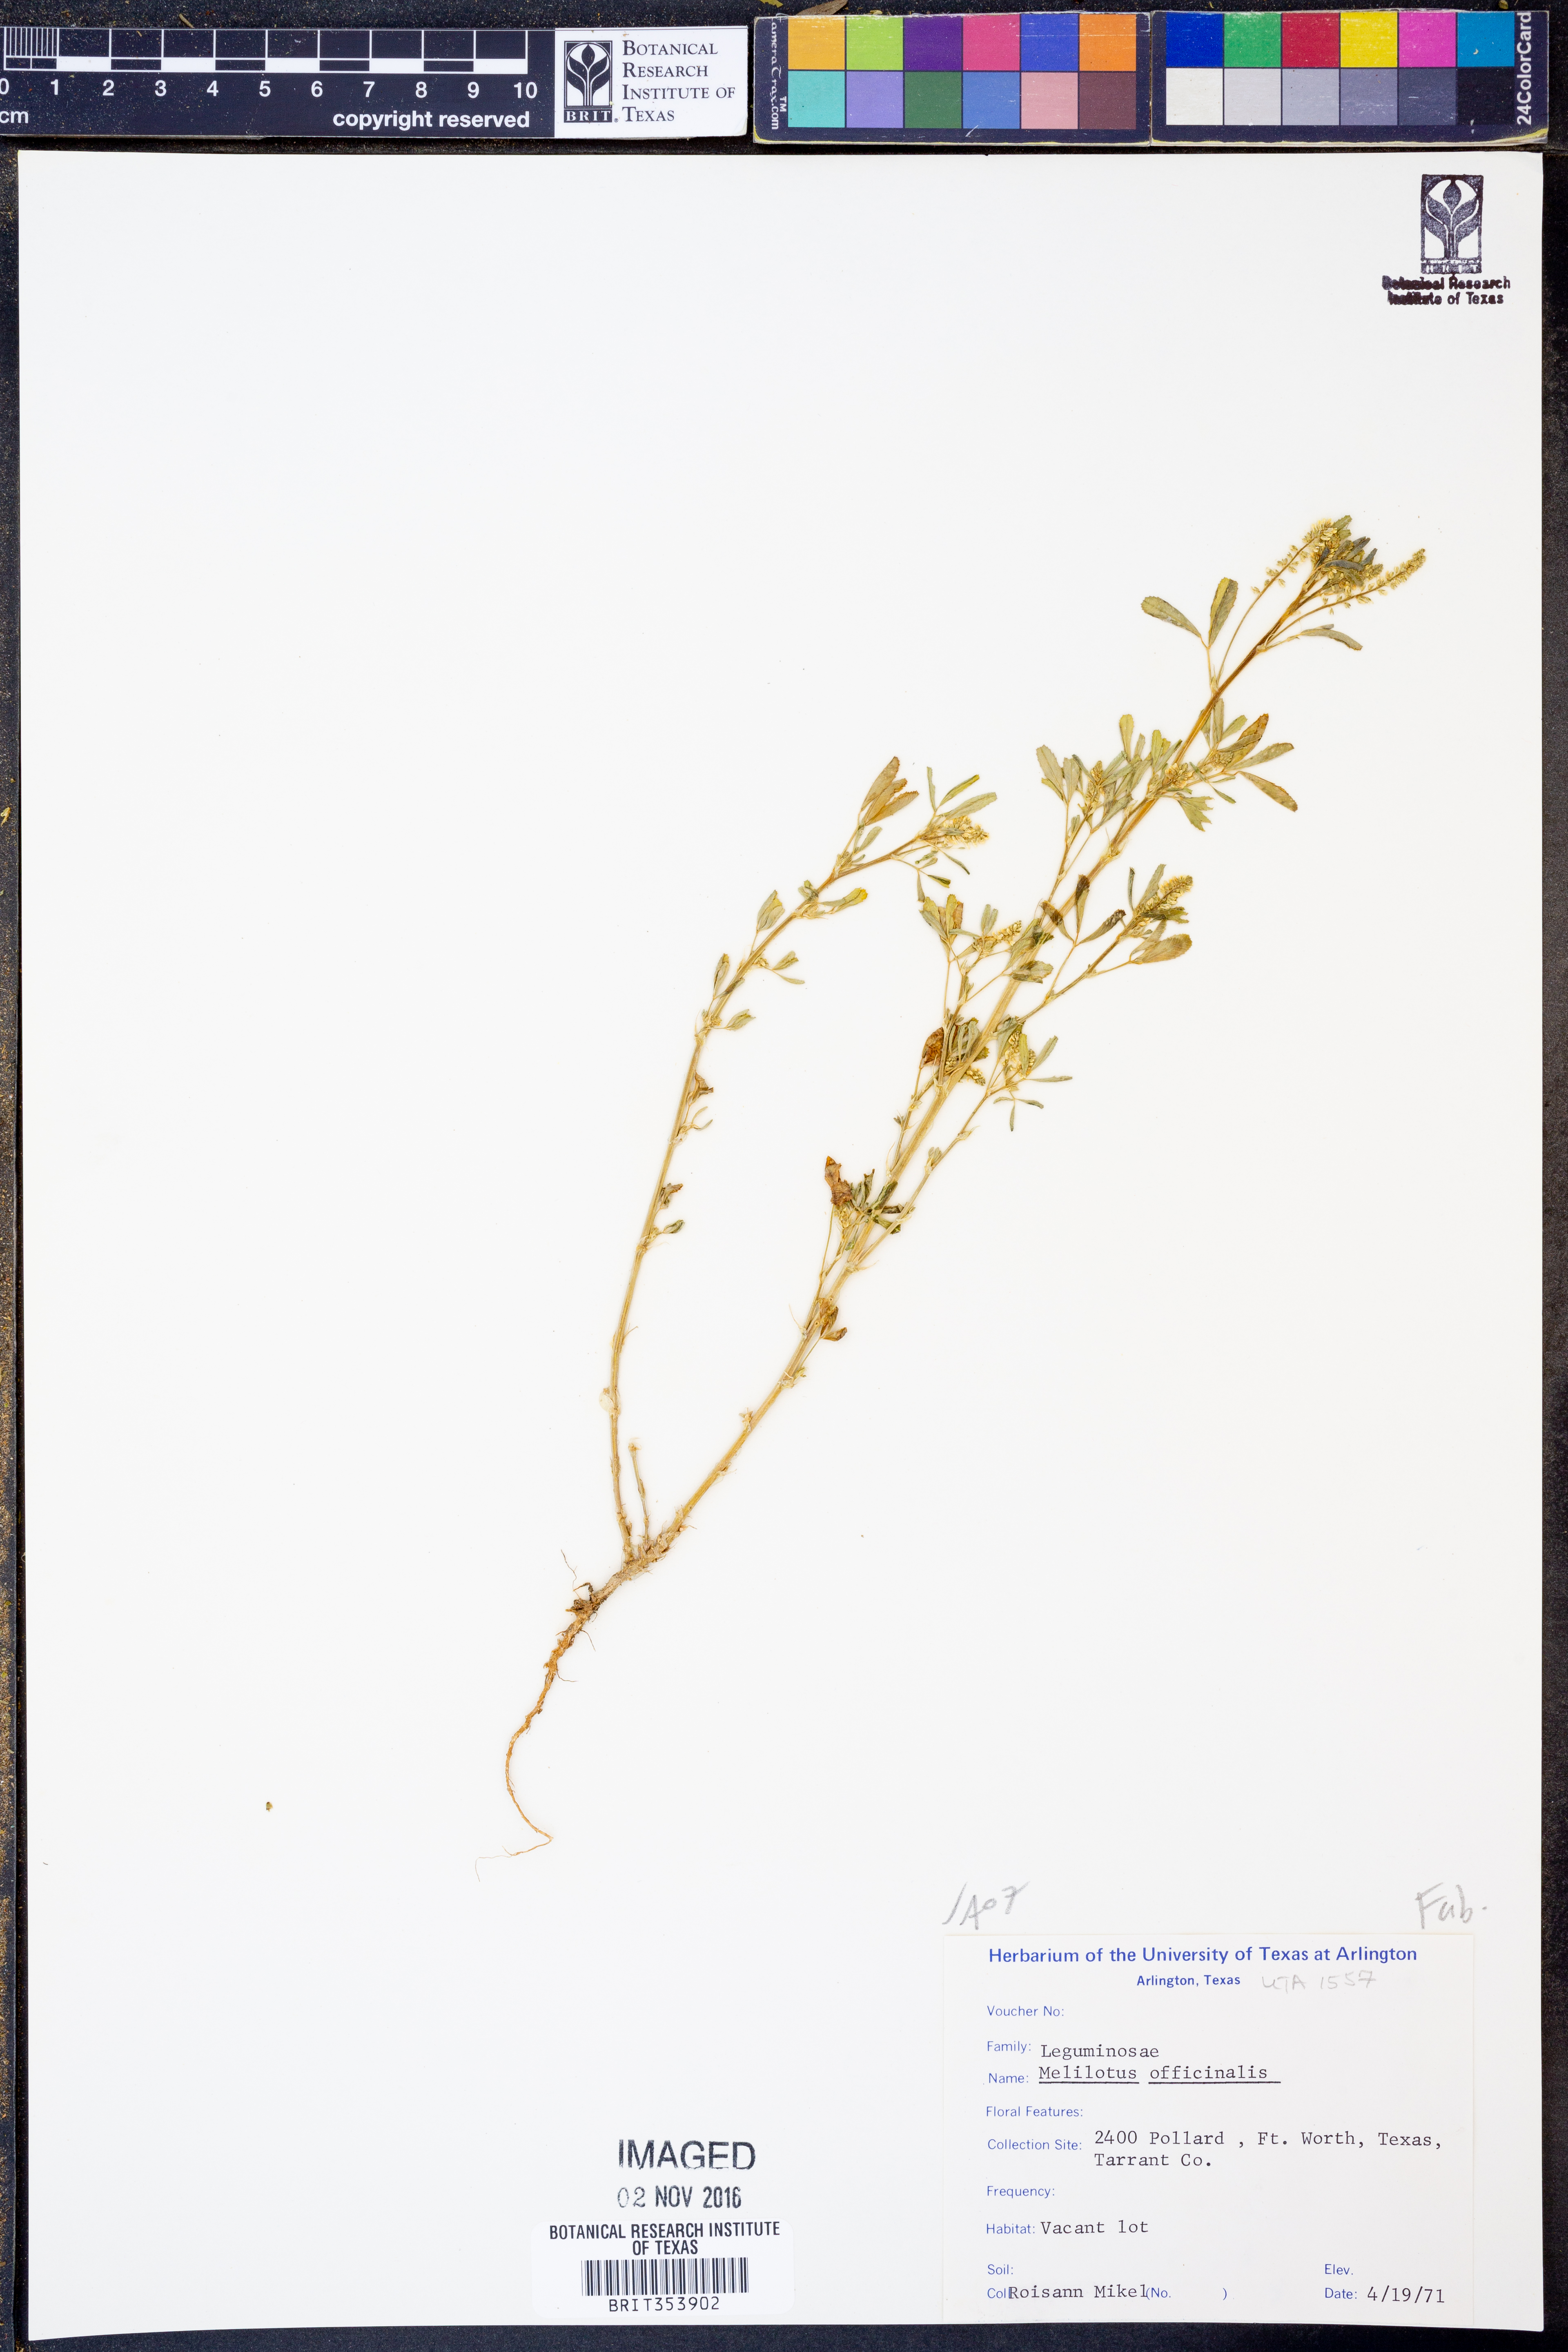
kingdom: Plantae
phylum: Tracheophyta
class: Magnoliopsida
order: Fabales
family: Fabaceae
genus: Melilotus
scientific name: Melilotus officinalis
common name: Sweetclover
